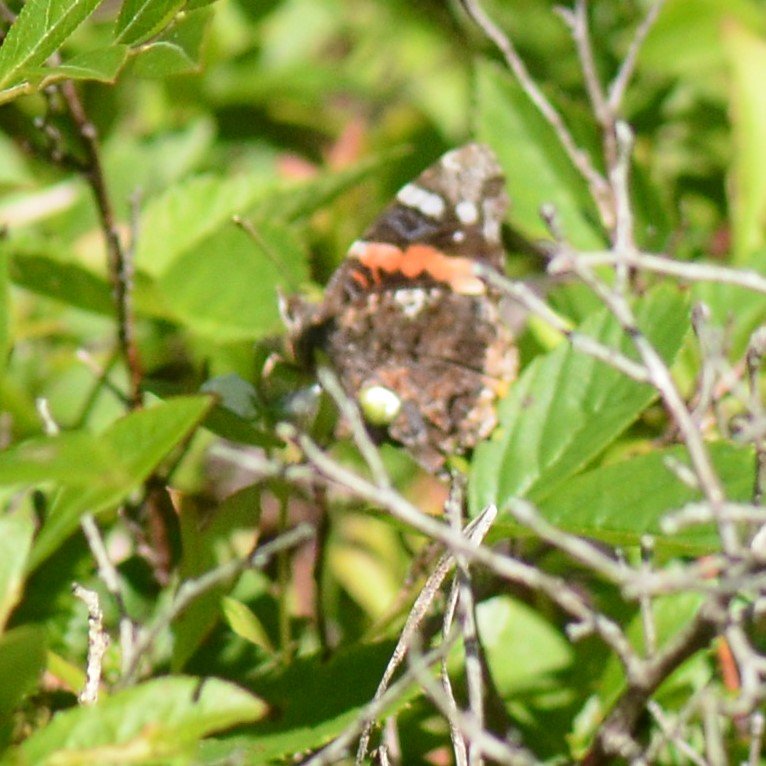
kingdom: Animalia
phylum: Arthropoda
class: Insecta
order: Lepidoptera
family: Nymphalidae
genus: Vanessa
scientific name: Vanessa atalanta
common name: Red Admiral
